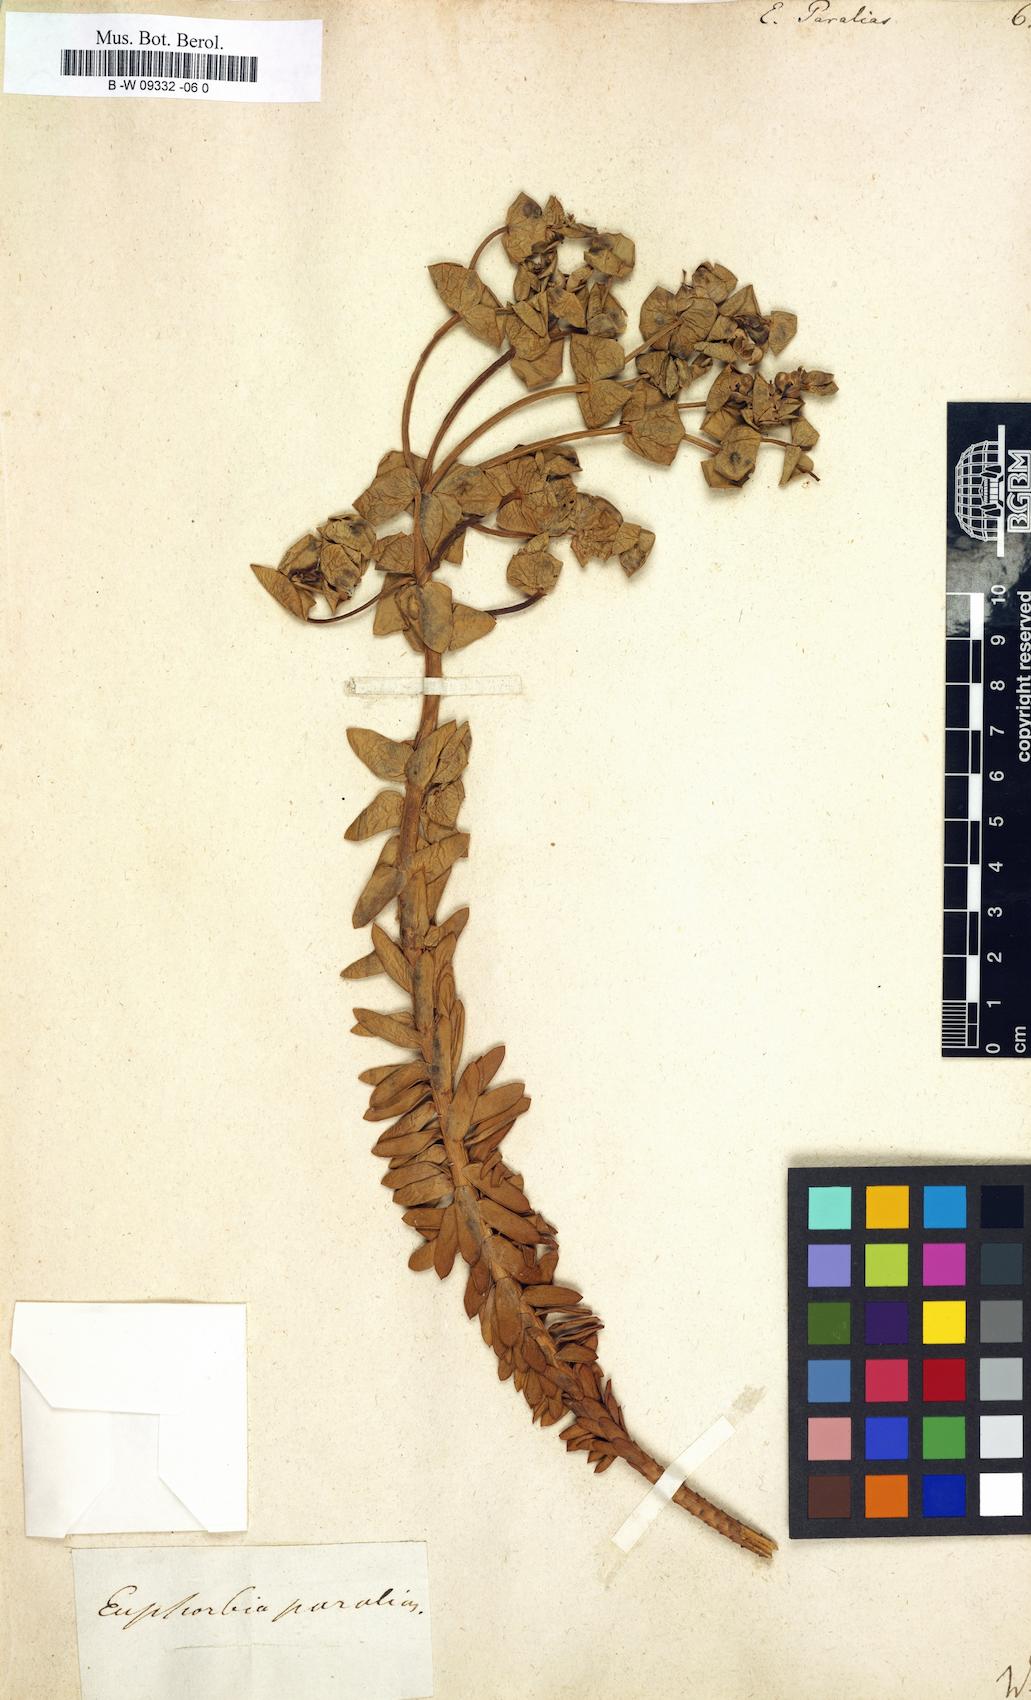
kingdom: Plantae
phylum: Tracheophyta
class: Magnoliopsida
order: Malpighiales
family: Euphorbiaceae
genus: Euphorbia
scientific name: Euphorbia paralias
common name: Sea spurge
